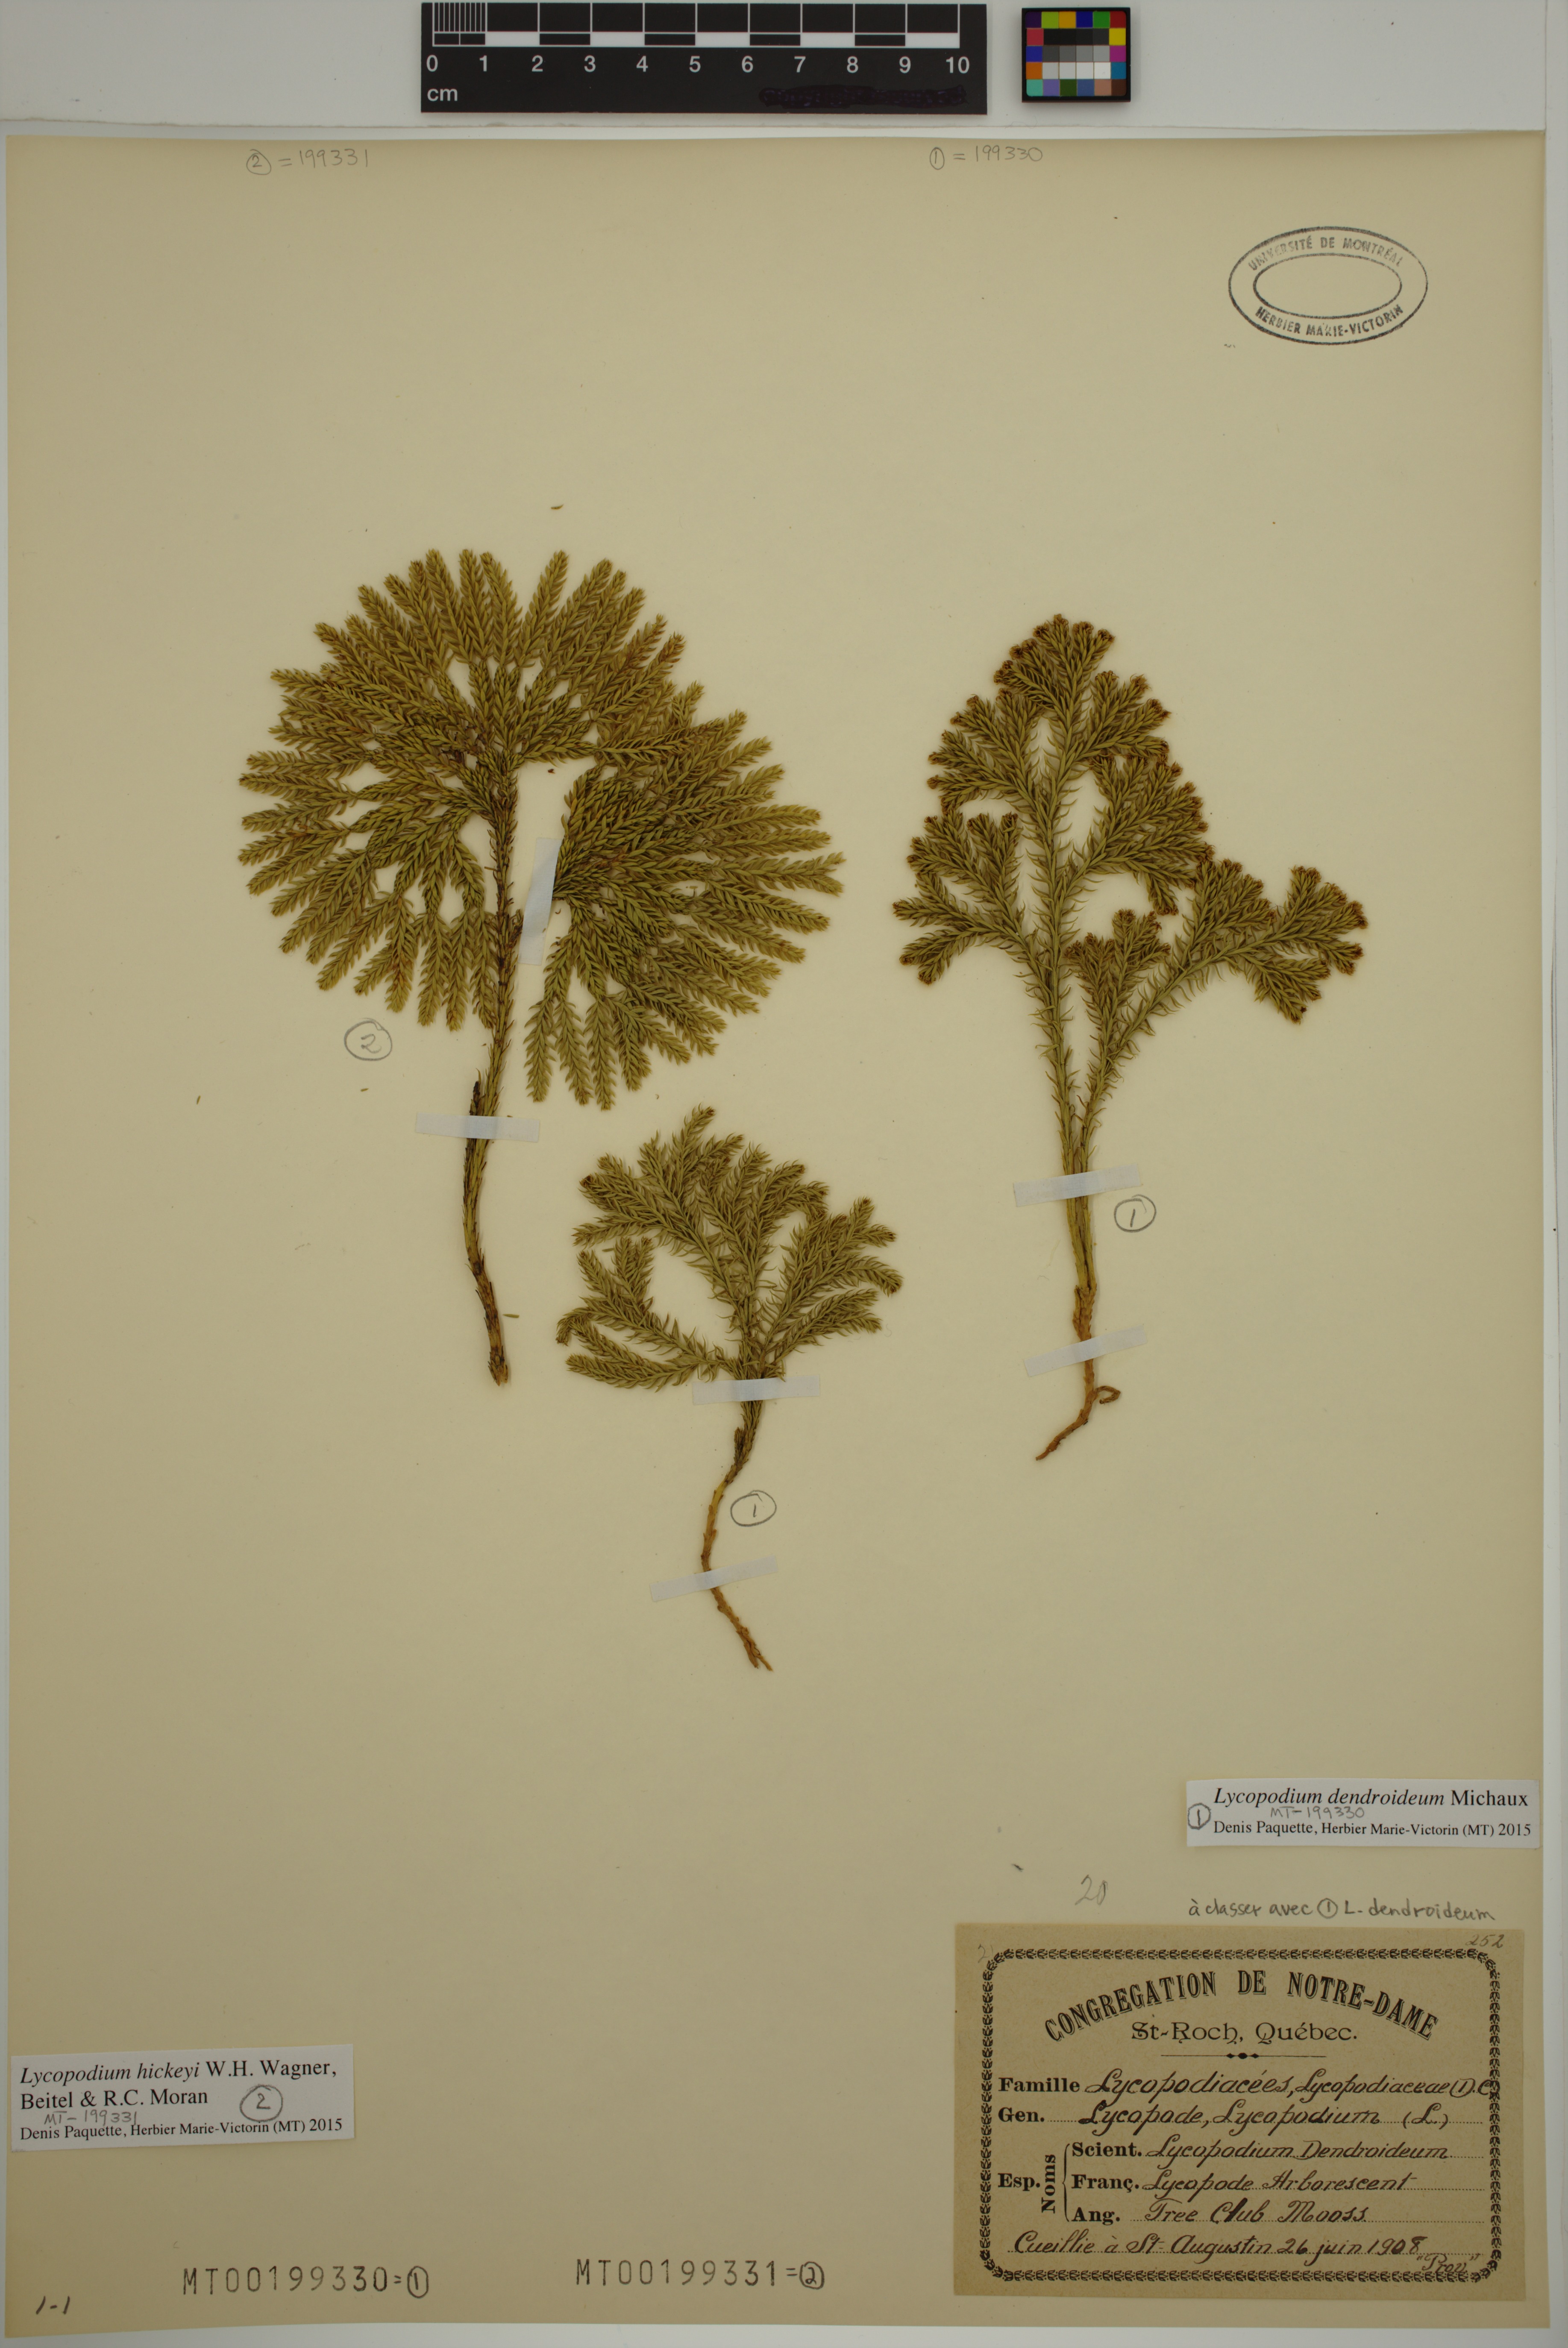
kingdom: Plantae
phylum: Tracheophyta
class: Lycopodiopsida
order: Lycopodiales
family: Lycopodiaceae
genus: Dendrolycopodium
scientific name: Dendrolycopodium dendroideum
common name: Northern tree-clubmoss
